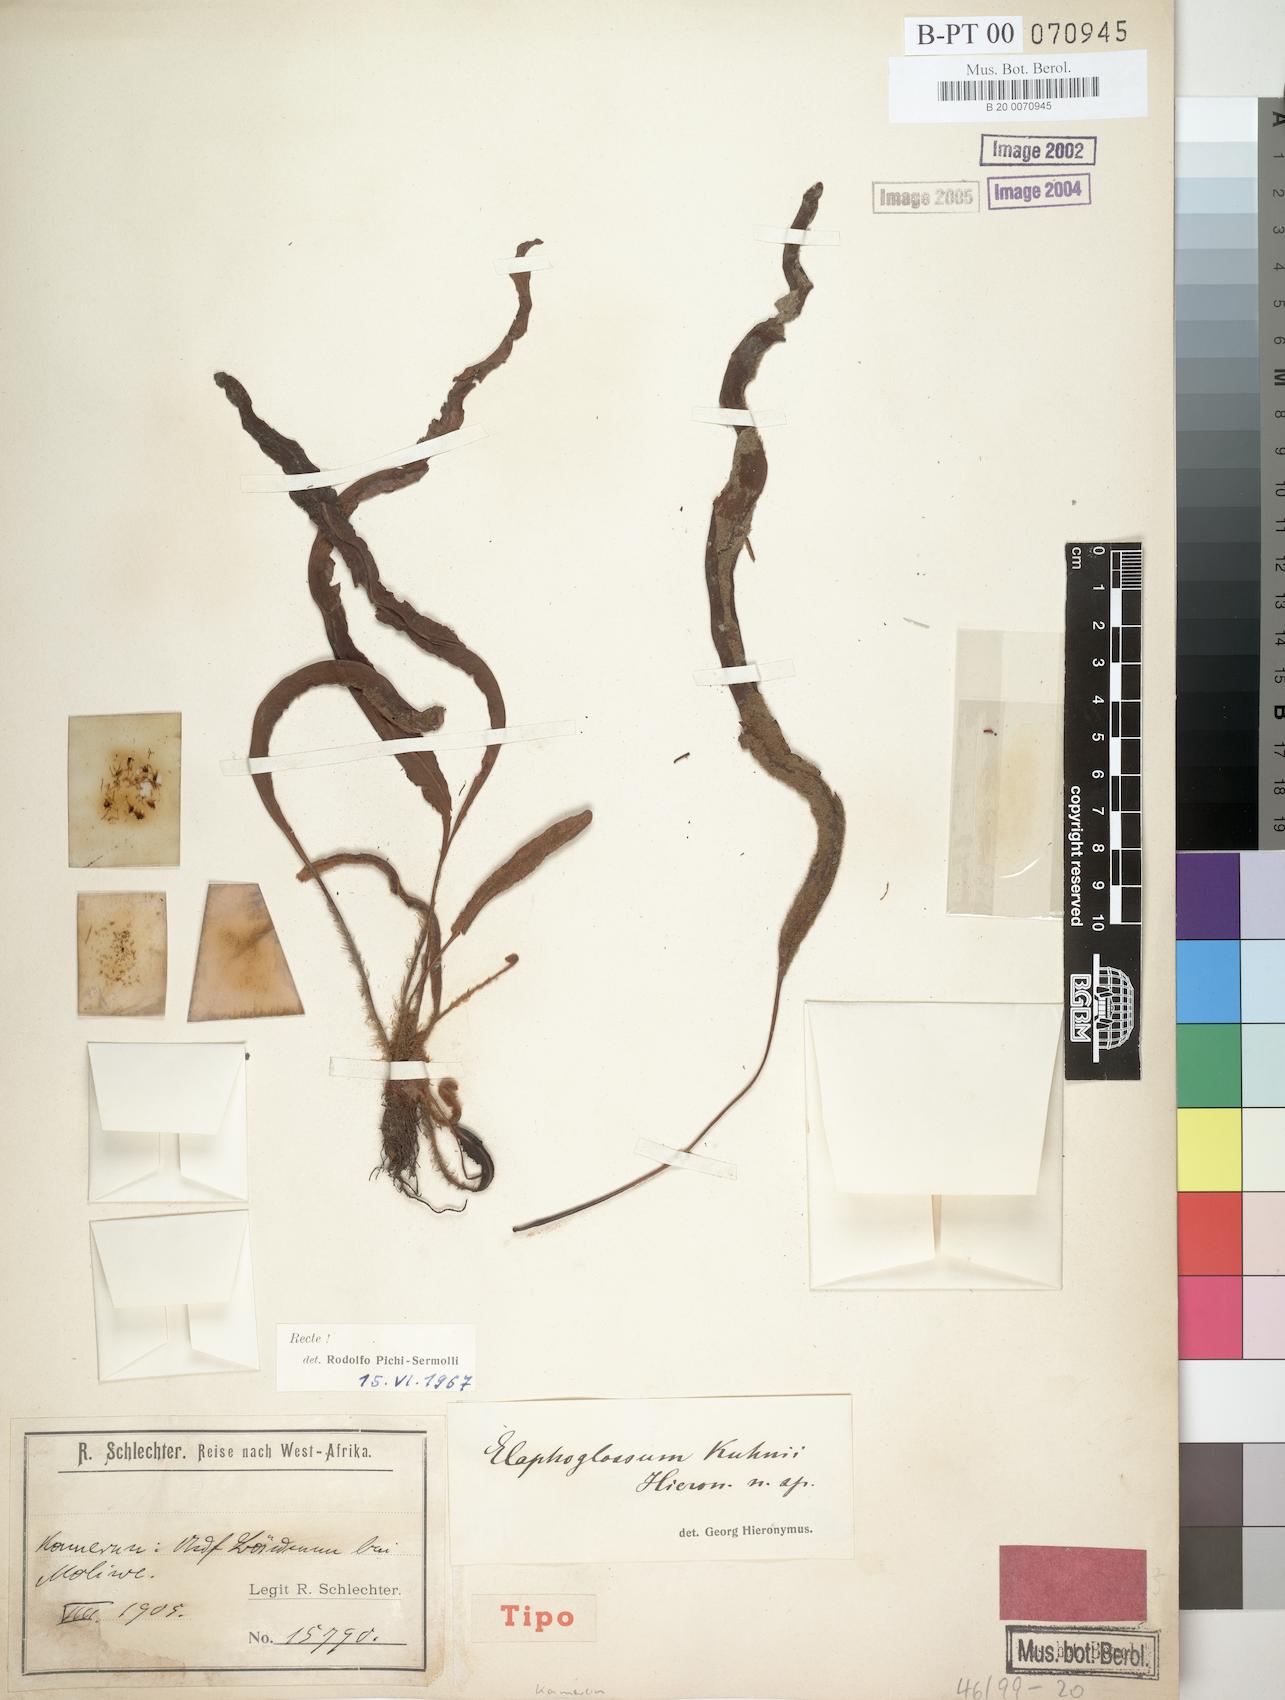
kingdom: Plantae
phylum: Tracheophyta
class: Polypodiopsida
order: Polypodiales
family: Dryopteridaceae
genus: Elaphoglossum
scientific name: Elaphoglossum kuhnii
